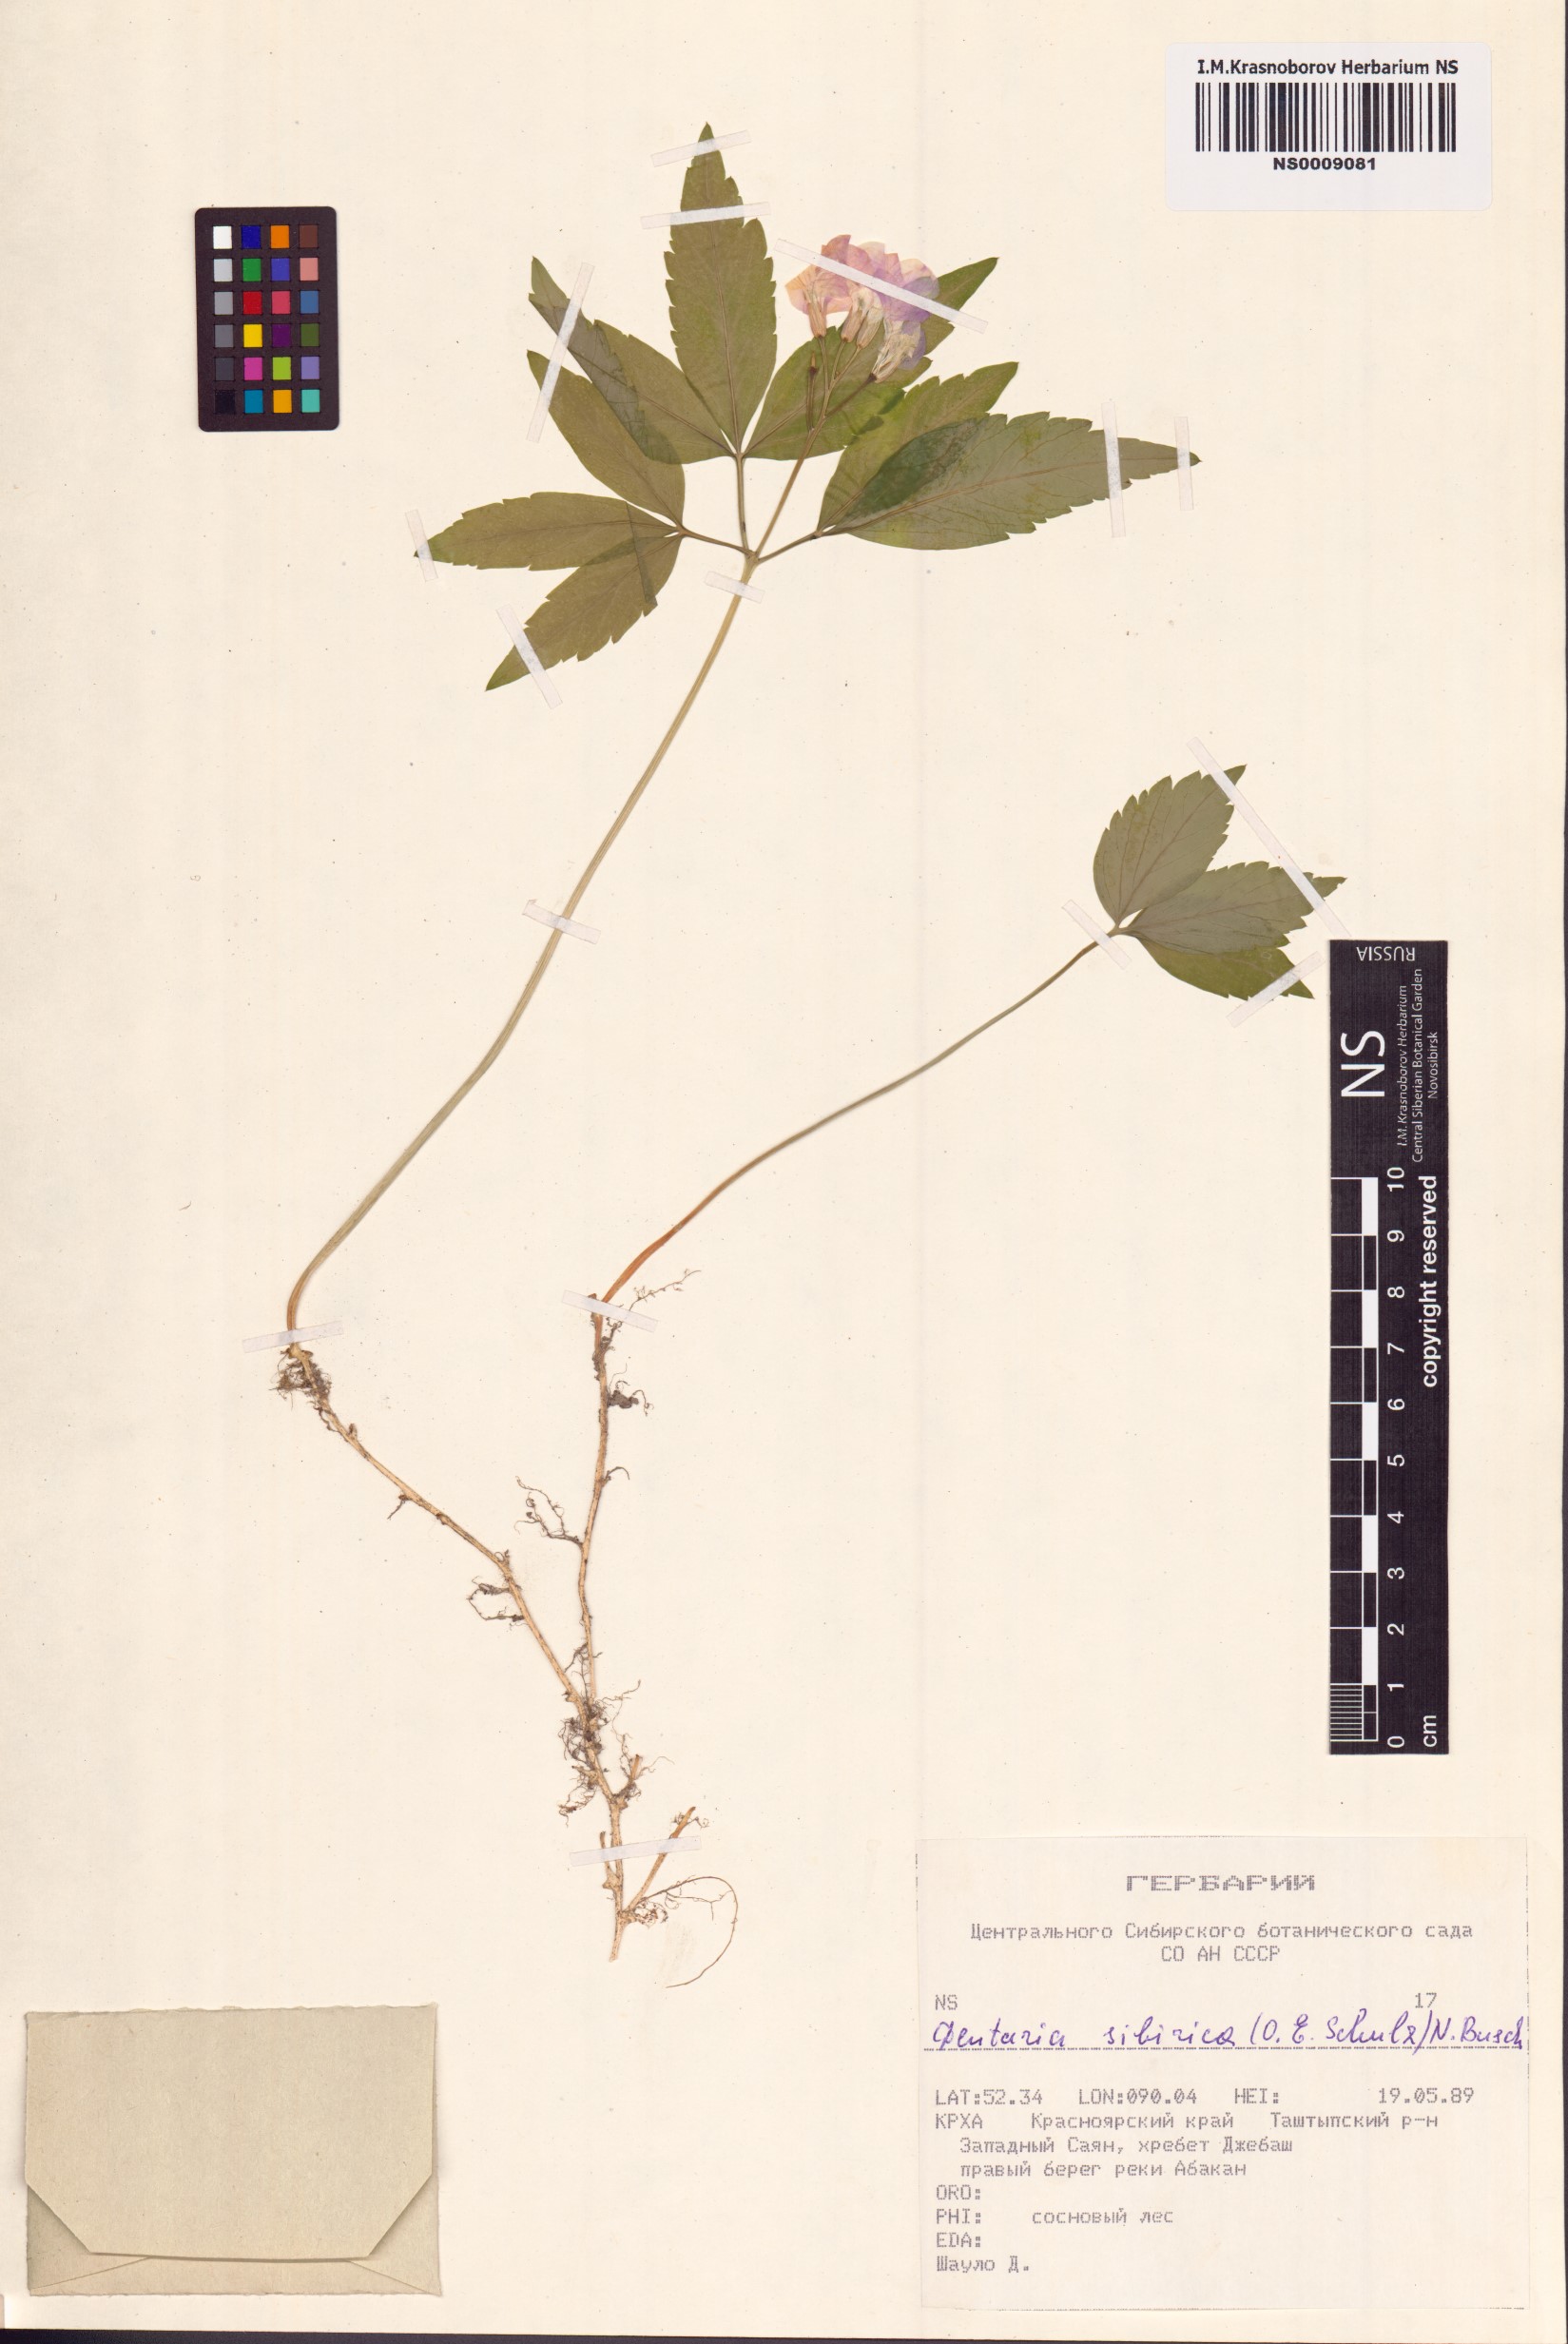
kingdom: Plantae
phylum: Tracheophyta
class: Magnoliopsida
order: Brassicales
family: Brassicaceae
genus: Cardamine
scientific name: Cardamine glanduligera
